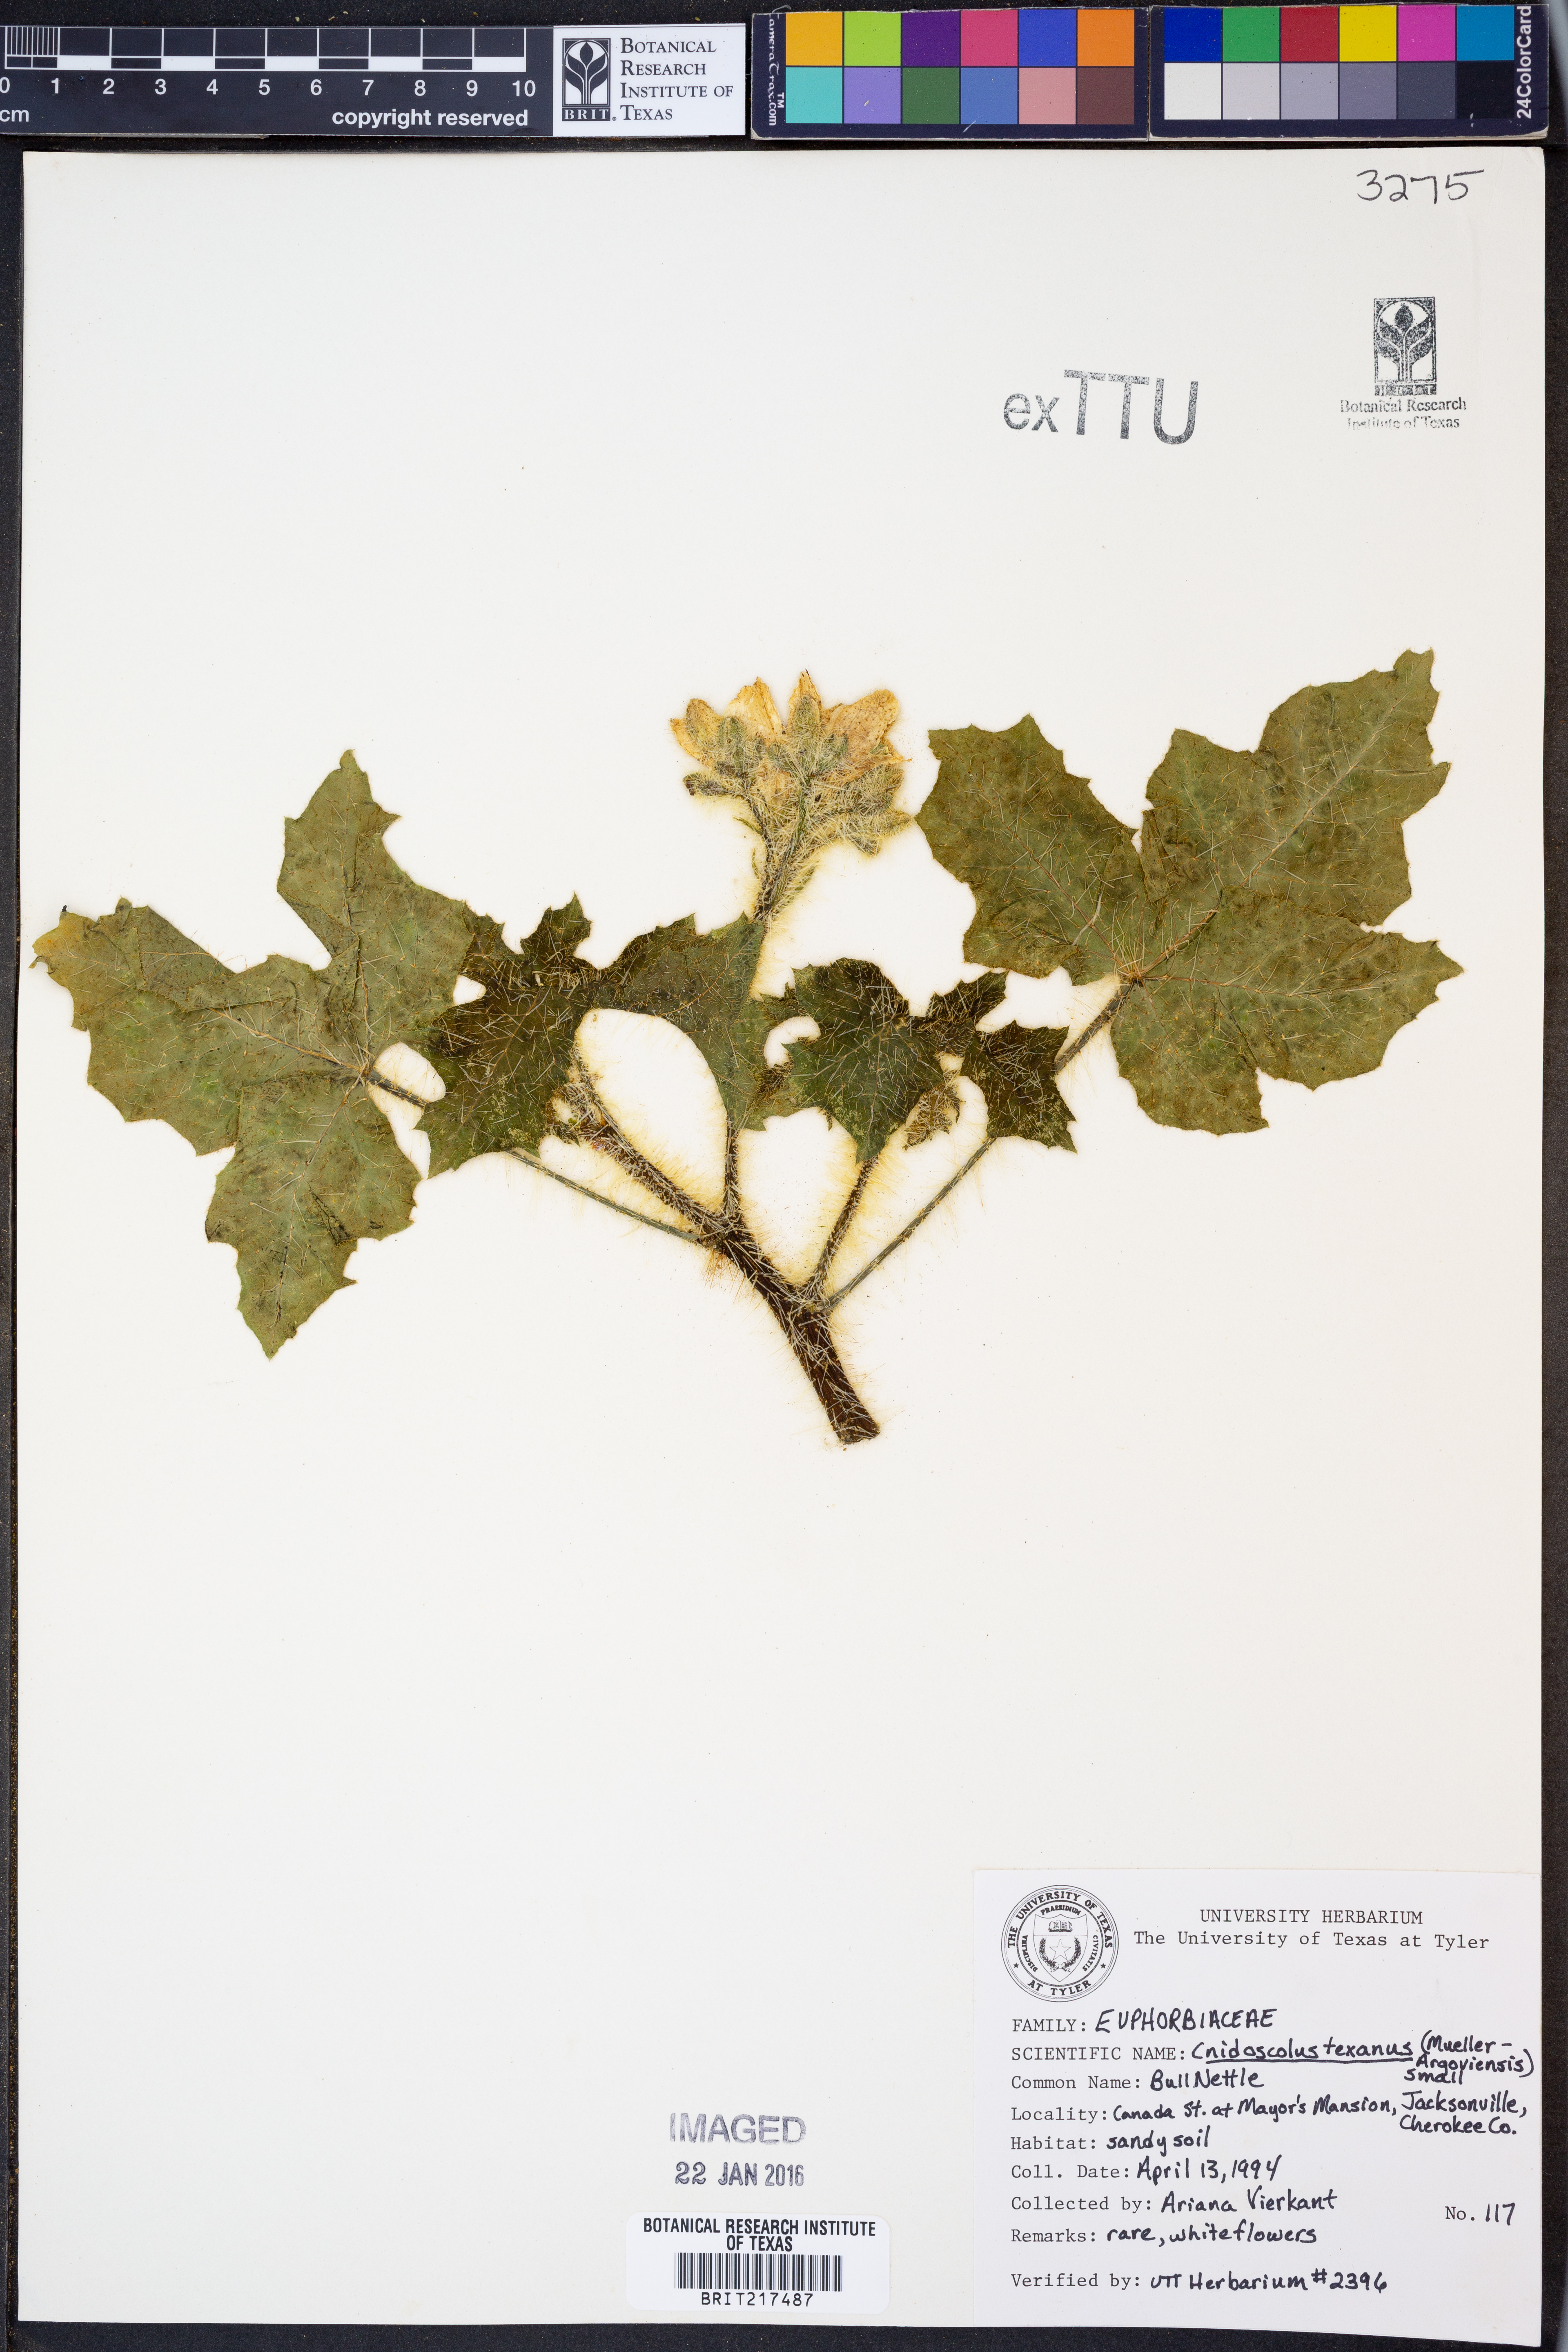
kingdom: Plantae
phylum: Tracheophyta
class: Magnoliopsida
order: Malpighiales
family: Euphorbiaceae
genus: Cnidoscolus
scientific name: Cnidoscolus texanus
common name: Texas bull-nettle
